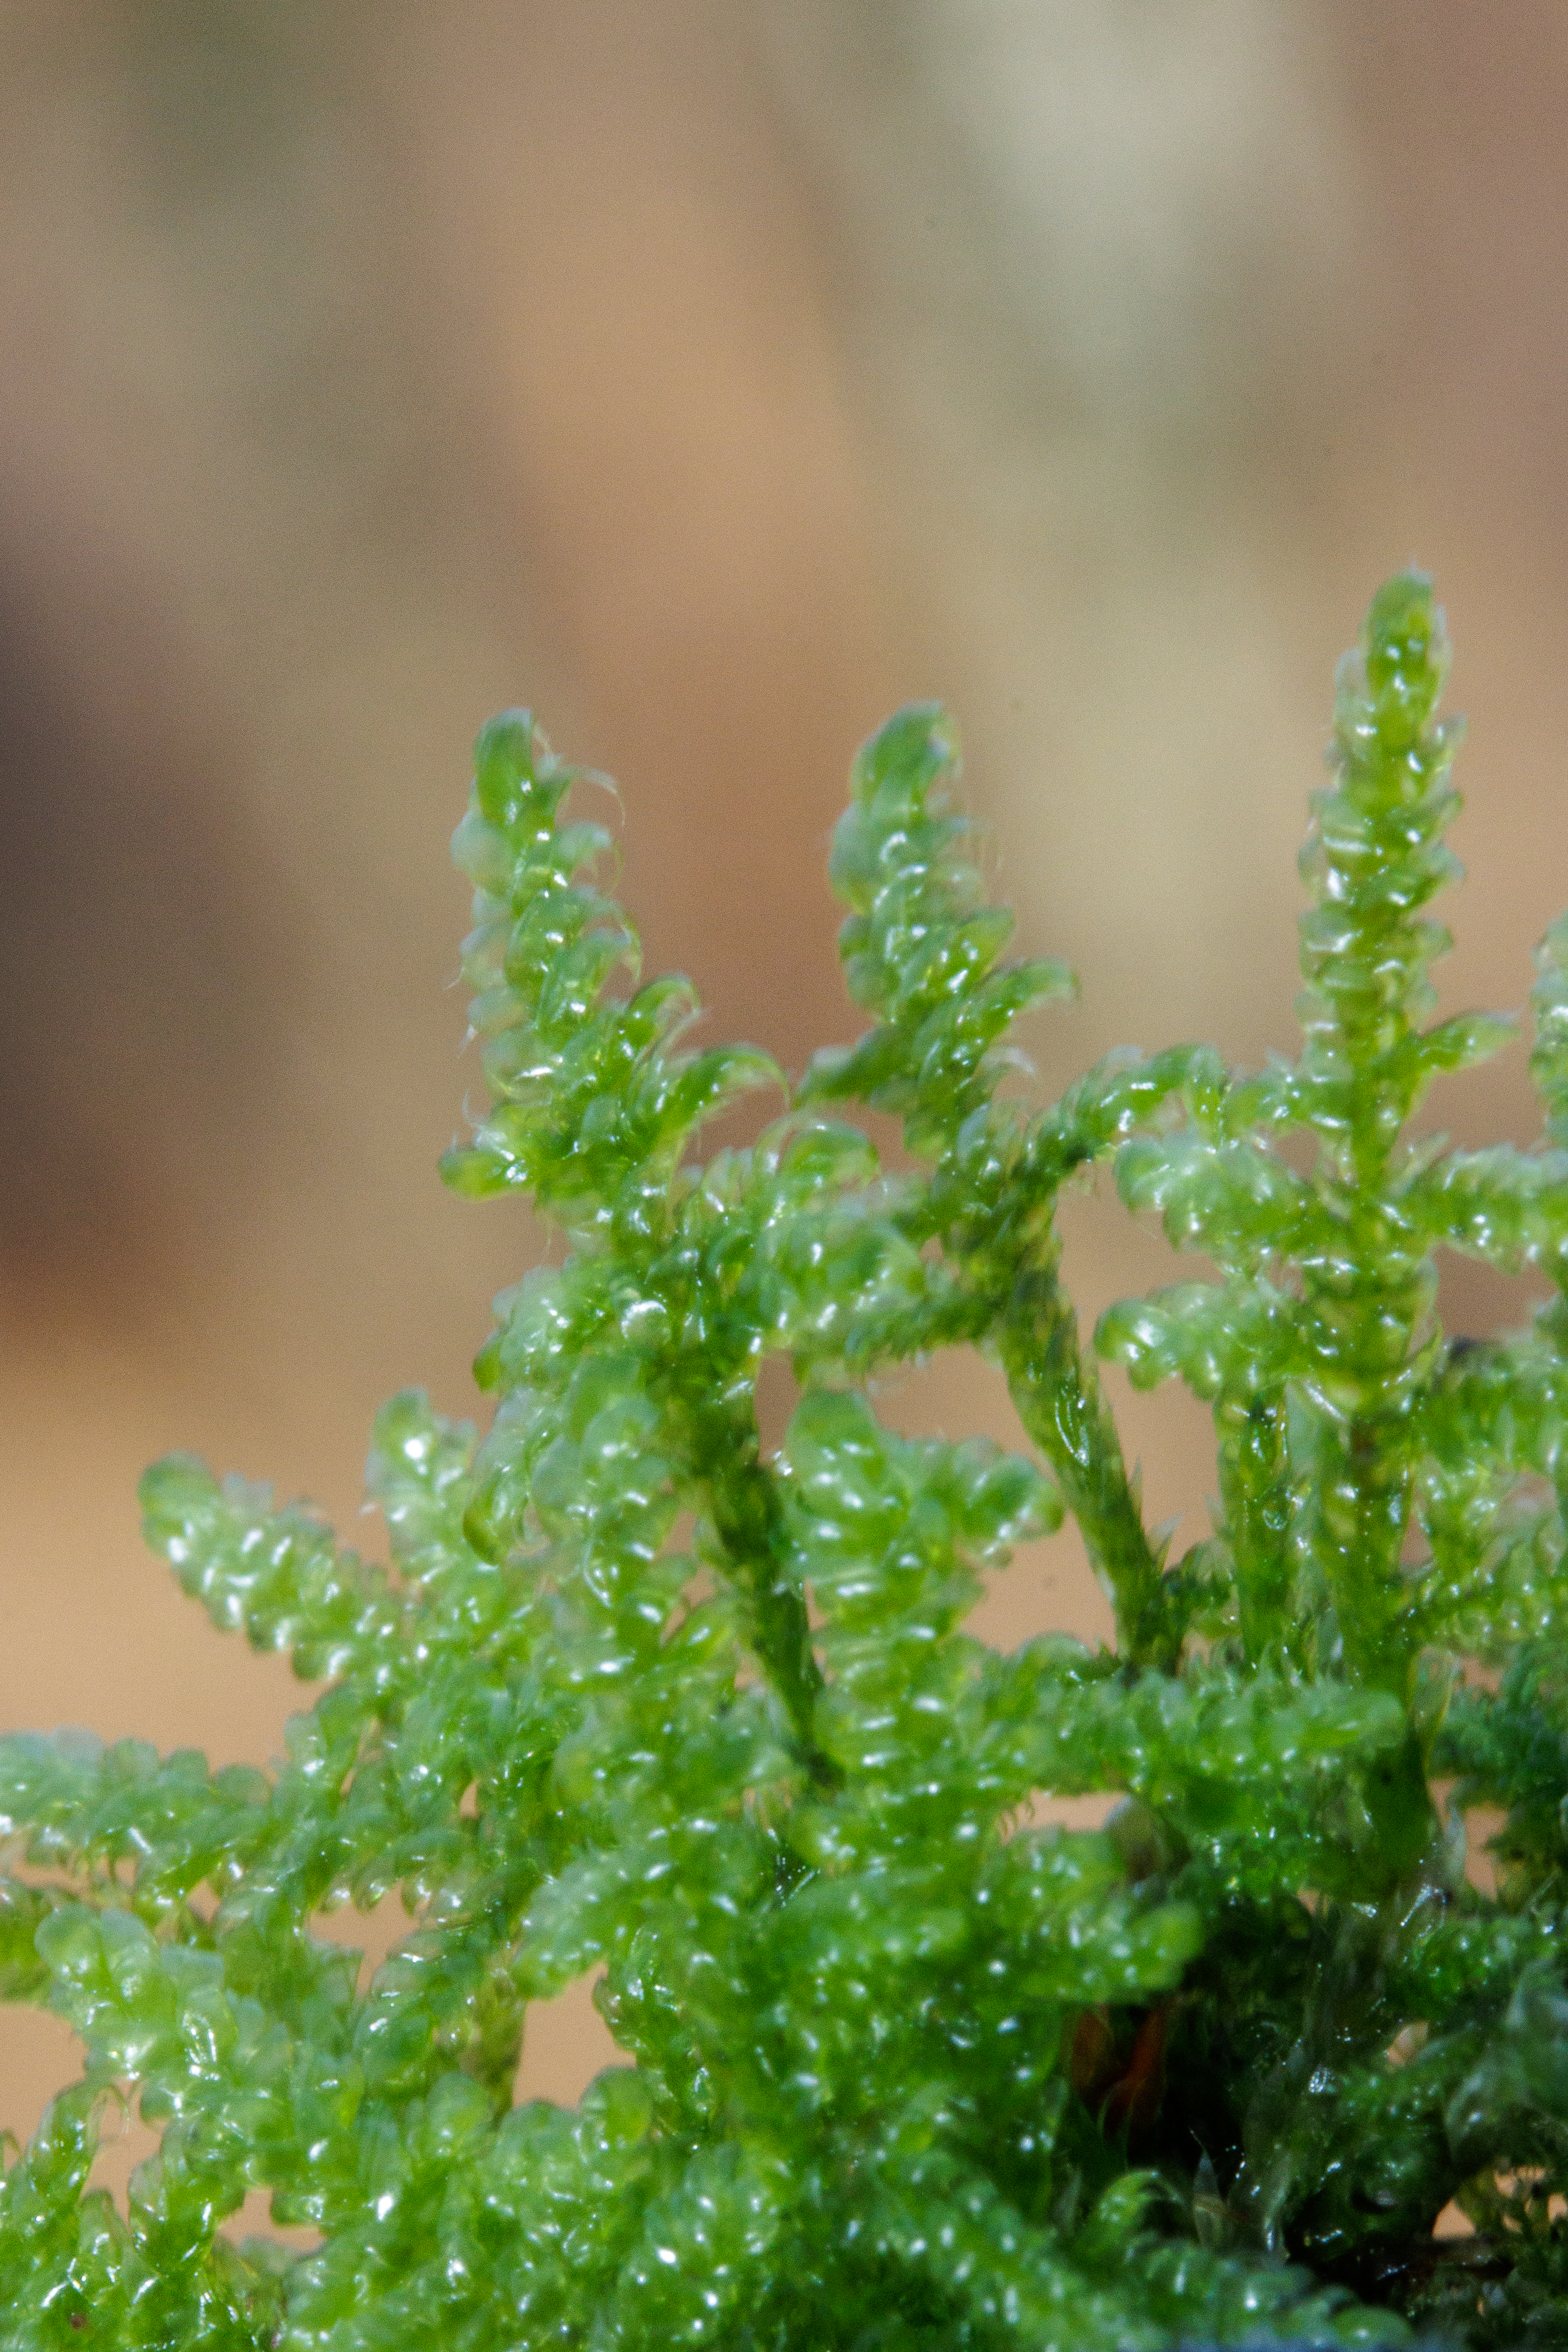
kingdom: Plantae
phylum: Bryophyta
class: Bryopsida
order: Hypnales
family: Hypnaceae
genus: Hypnum
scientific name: Hypnum jutlandicum
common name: Hede-cypresmos
